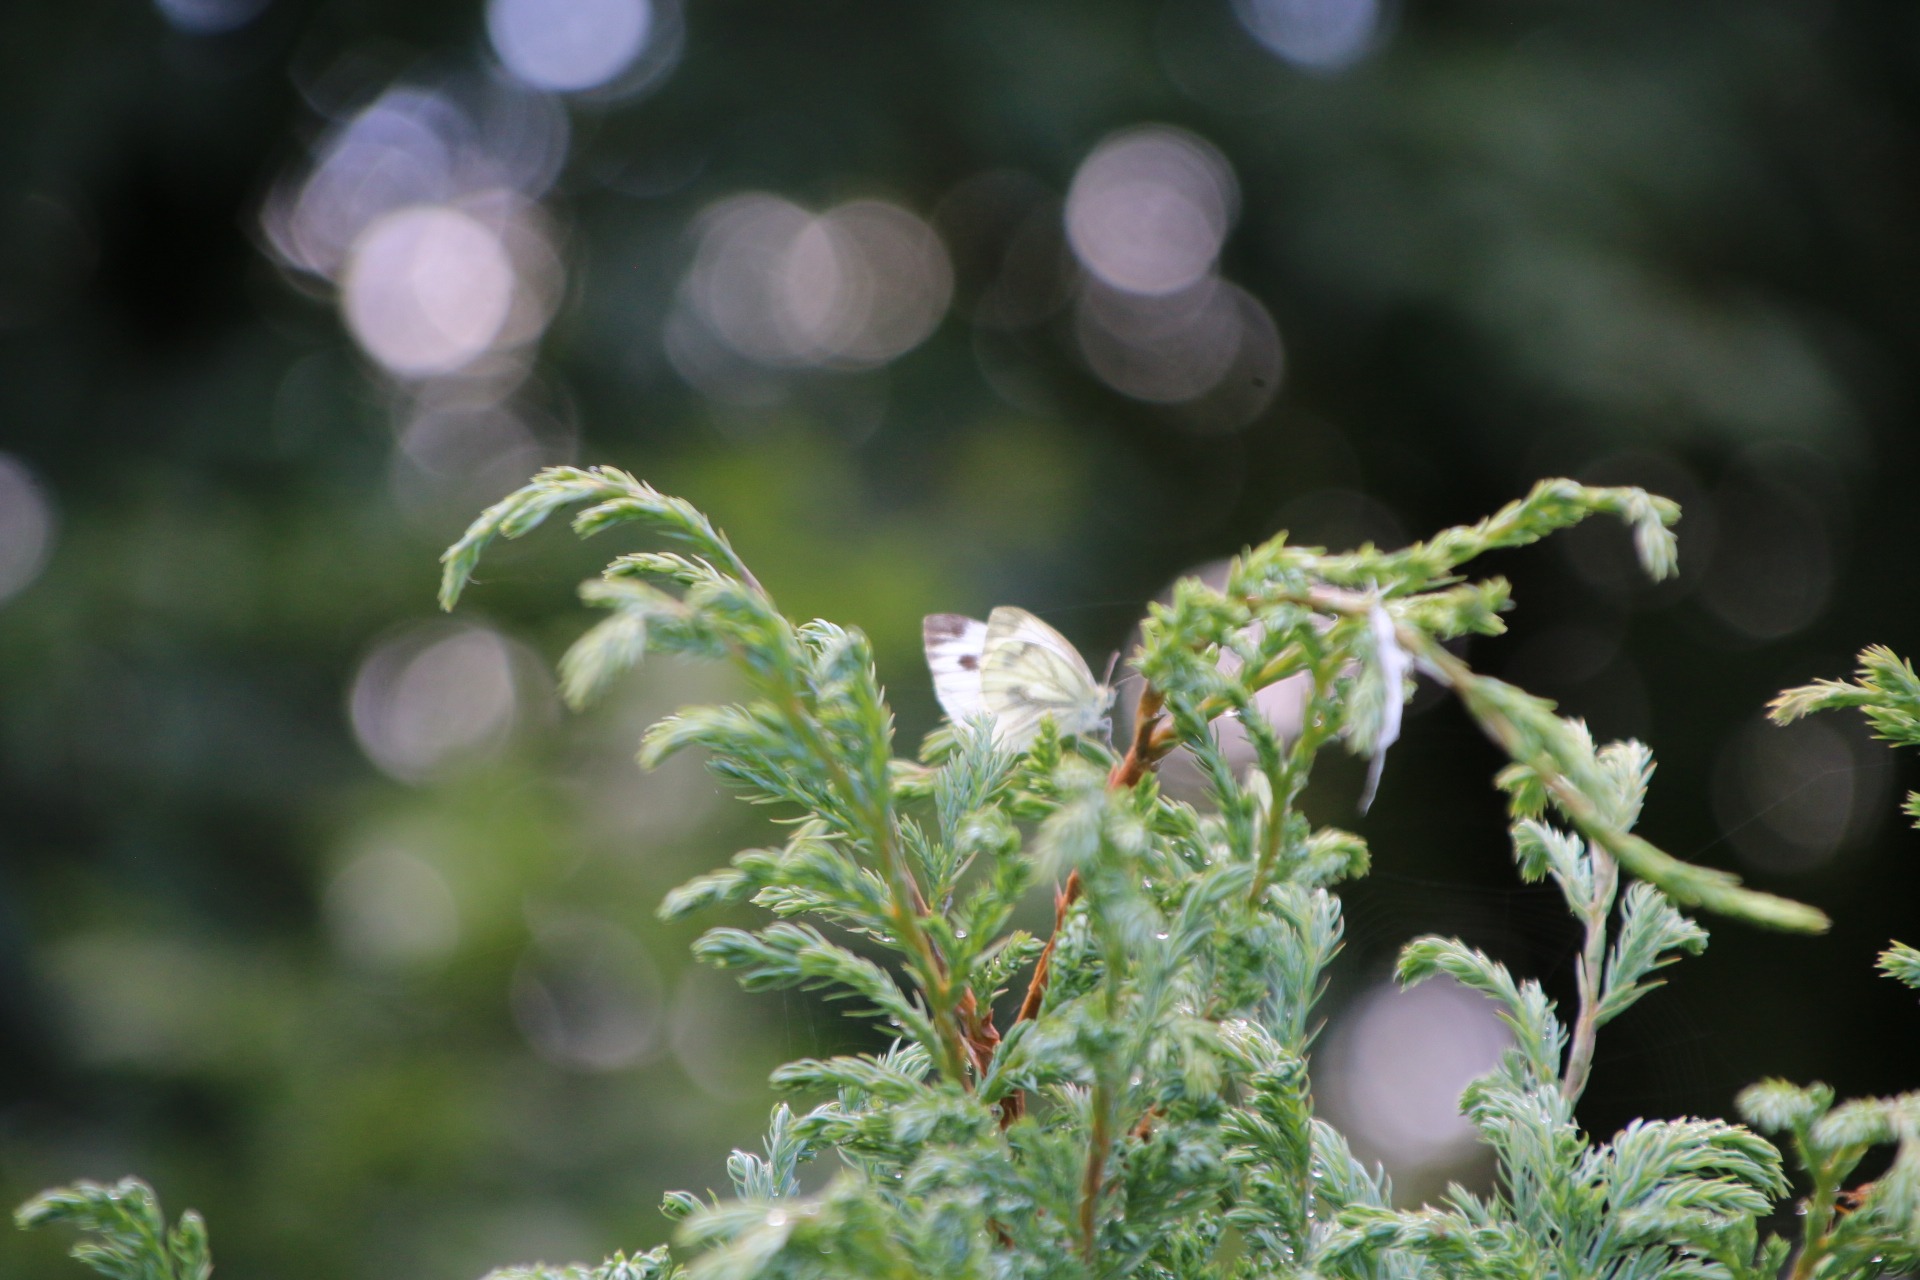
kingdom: Animalia
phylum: Arthropoda
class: Insecta
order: Lepidoptera
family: Pieridae
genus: Pieris
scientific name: Pieris napi
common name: Grønåret kålsommerfugl
